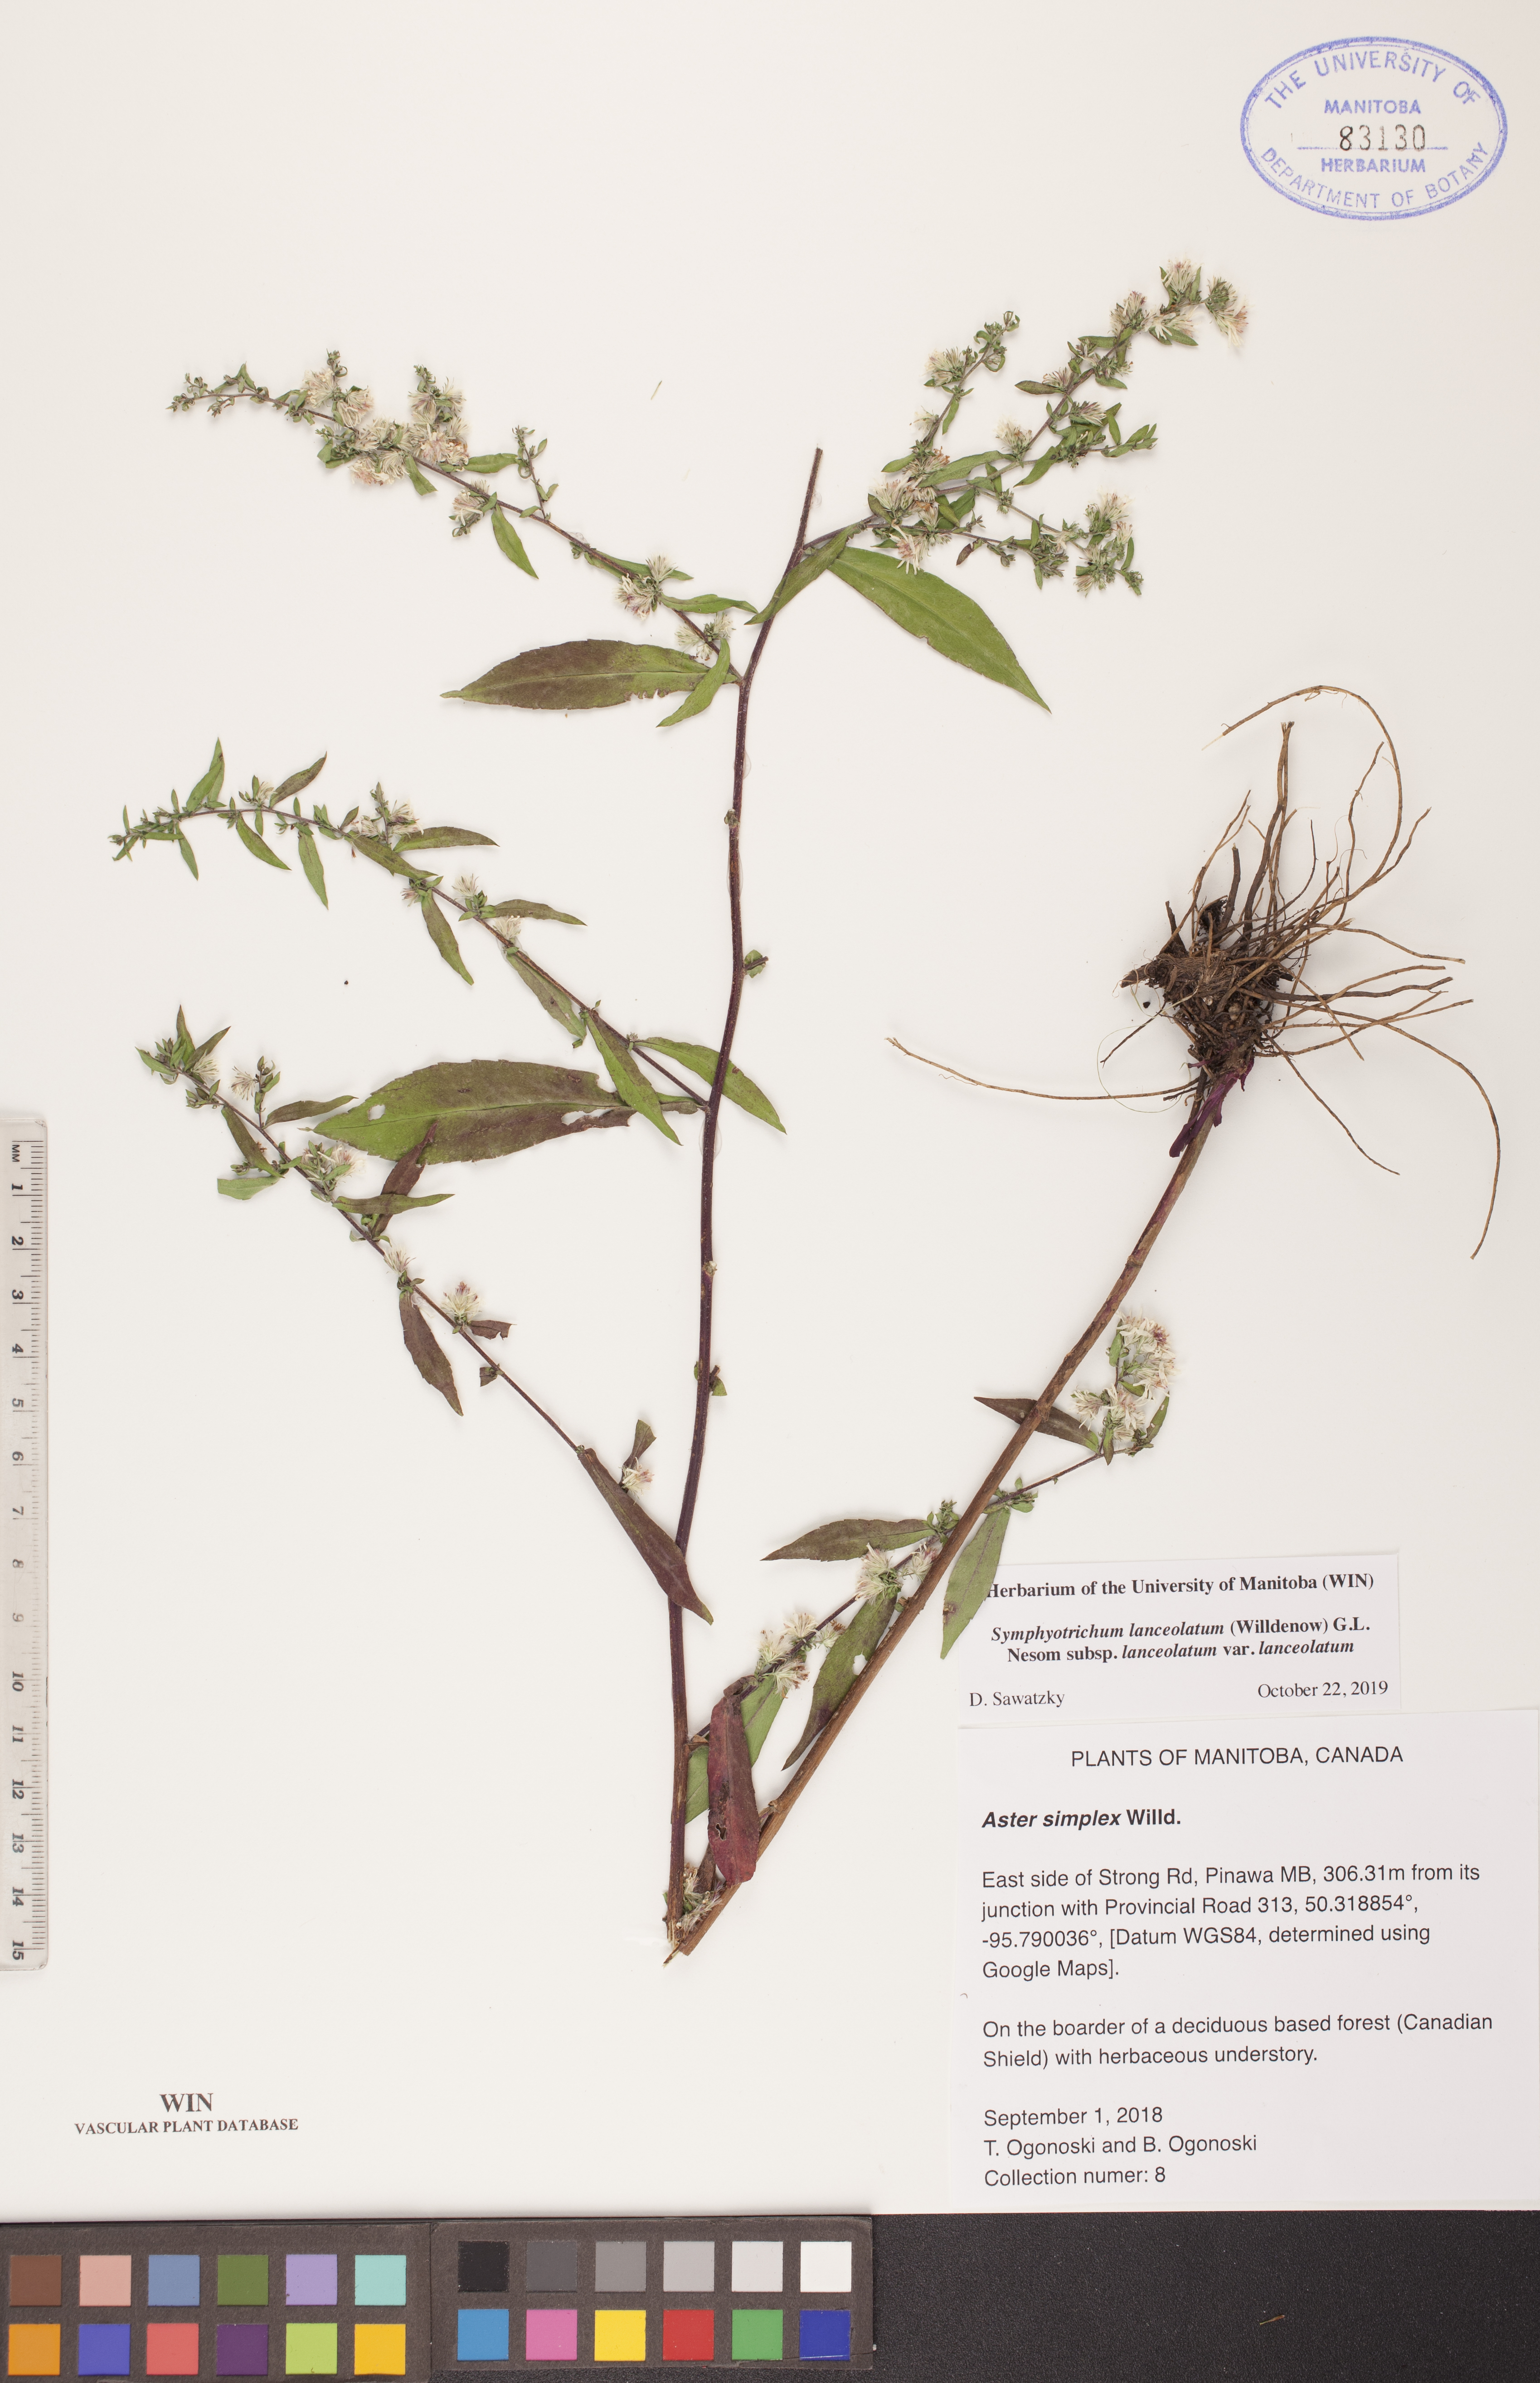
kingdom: Plantae
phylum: Tracheophyta
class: Magnoliopsida
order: Asterales
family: Asteraceae
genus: Symphyotrichum
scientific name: Symphyotrichum lanceolatum
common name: Panicled aster
